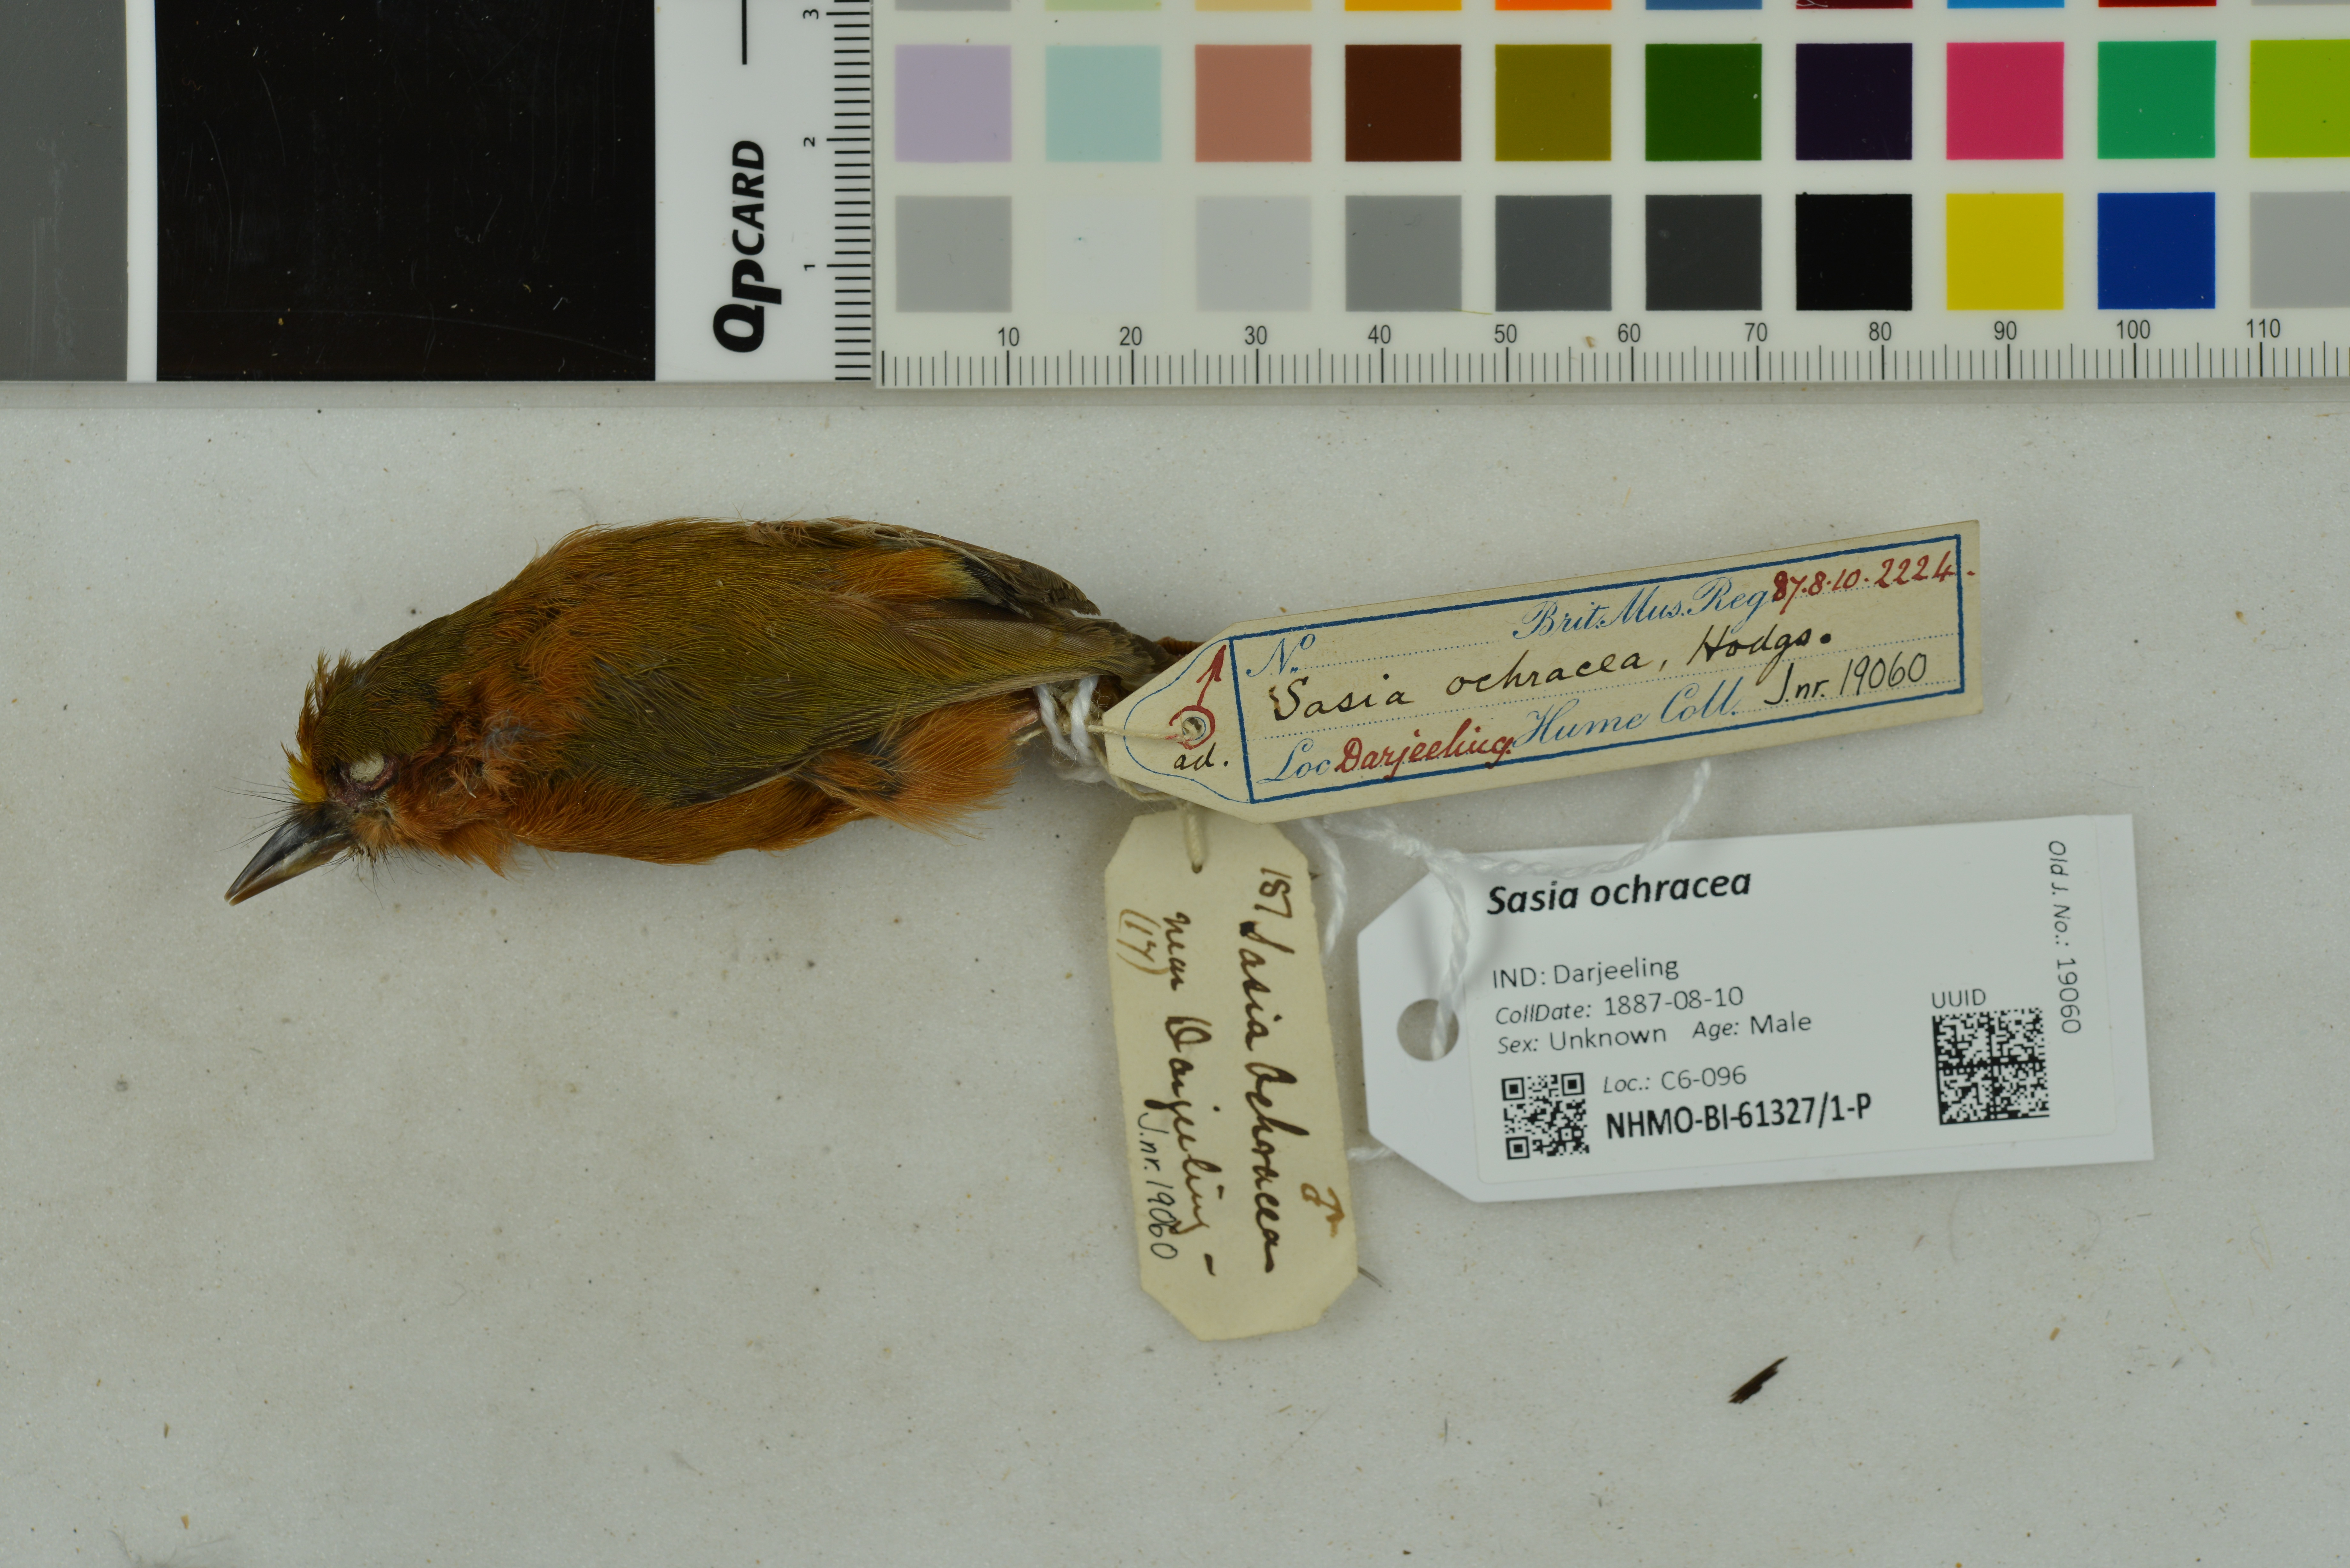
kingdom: Animalia
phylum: Chordata
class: Aves
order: Piciformes
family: Picidae
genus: Sasia
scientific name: Sasia ochracea
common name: White-browed piculet
